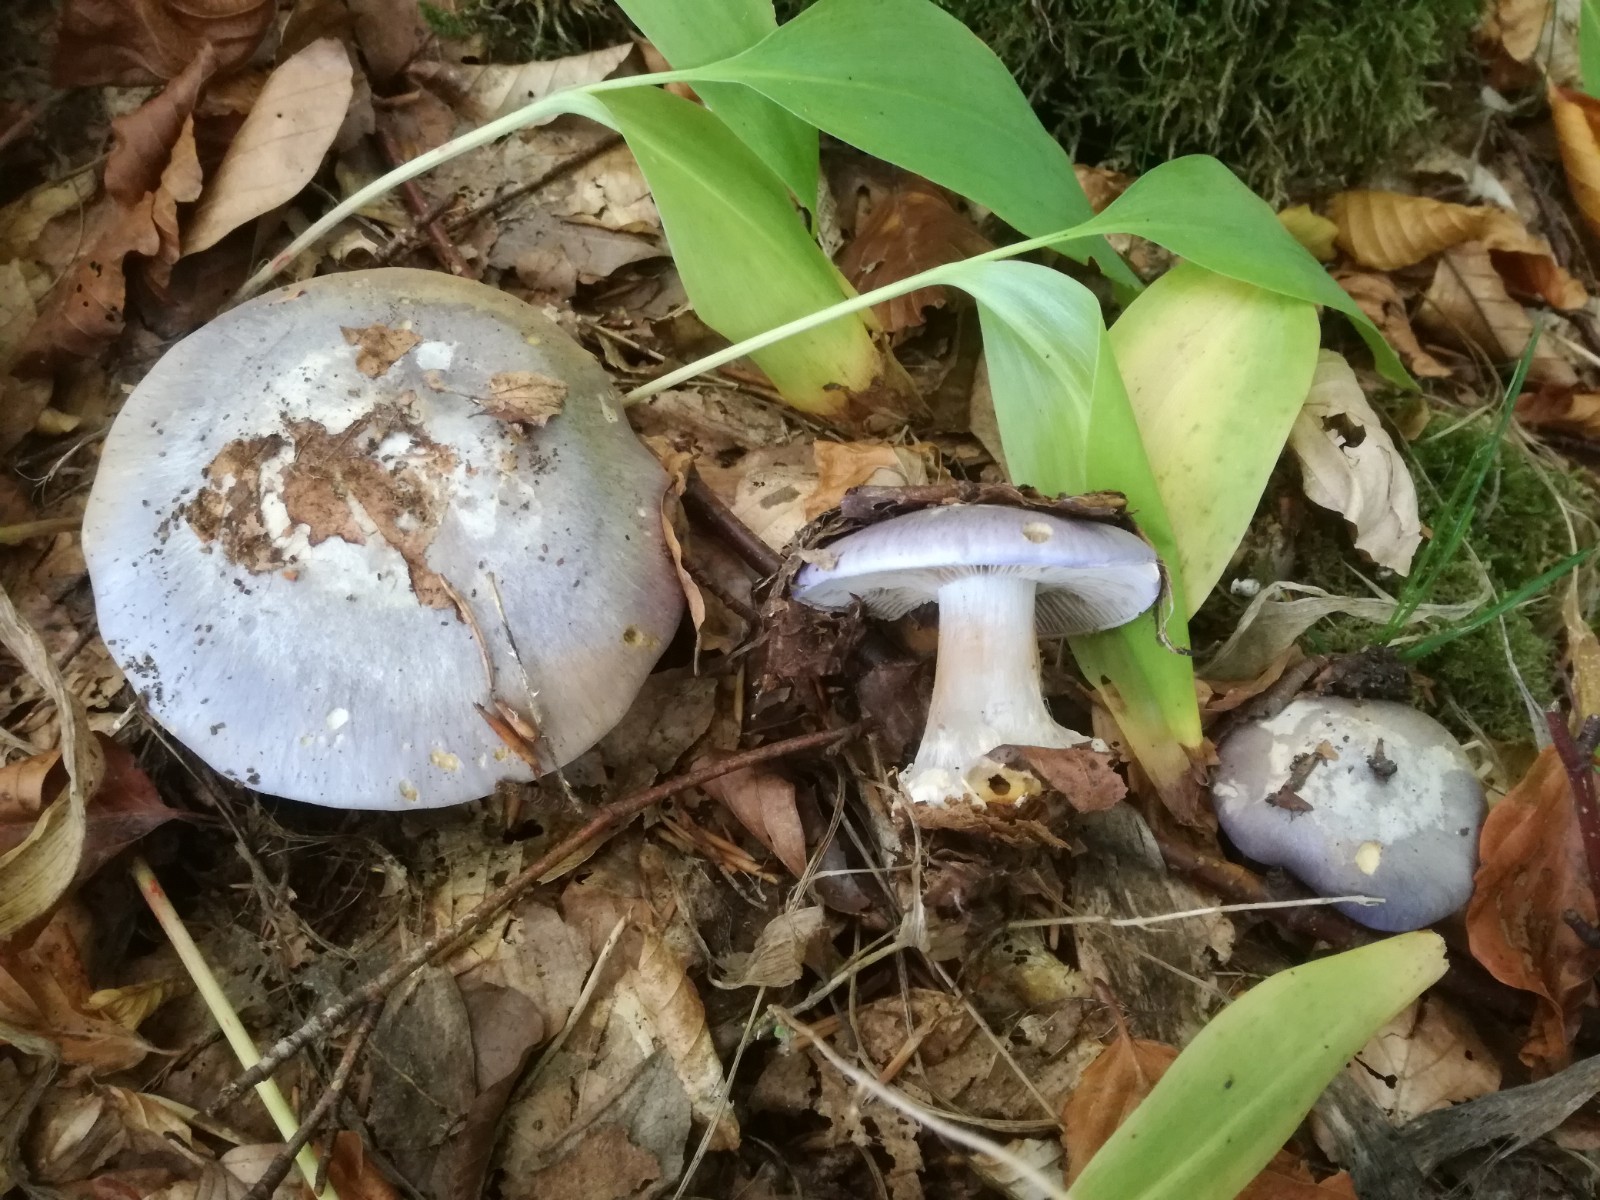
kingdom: Fungi
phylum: Basidiomycota
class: Agaricomycetes
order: Agaricales
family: Cortinariaceae
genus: Cortinarius
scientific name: Cortinarius caerulescens
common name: blåkødet slørhat
